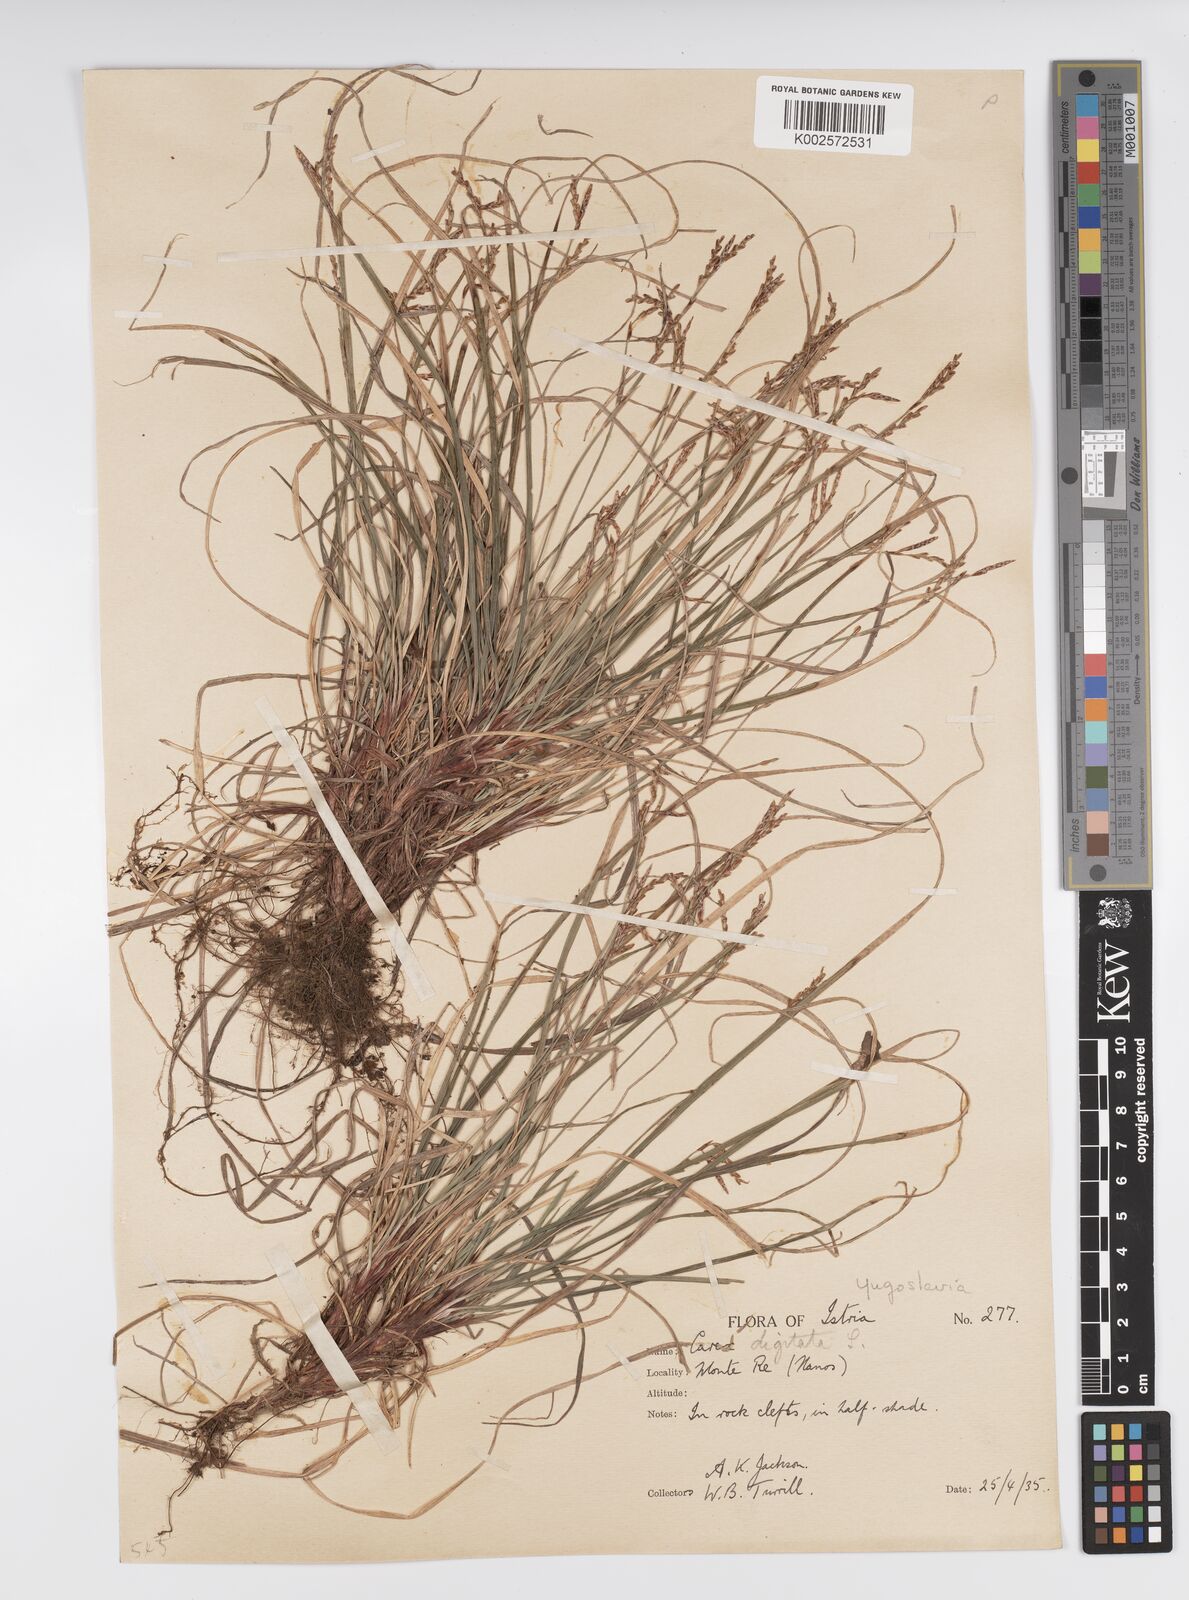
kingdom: Plantae
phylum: Tracheophyta
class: Liliopsida
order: Poales
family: Cyperaceae
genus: Carex
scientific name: Carex digitata
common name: Fingered sedge
